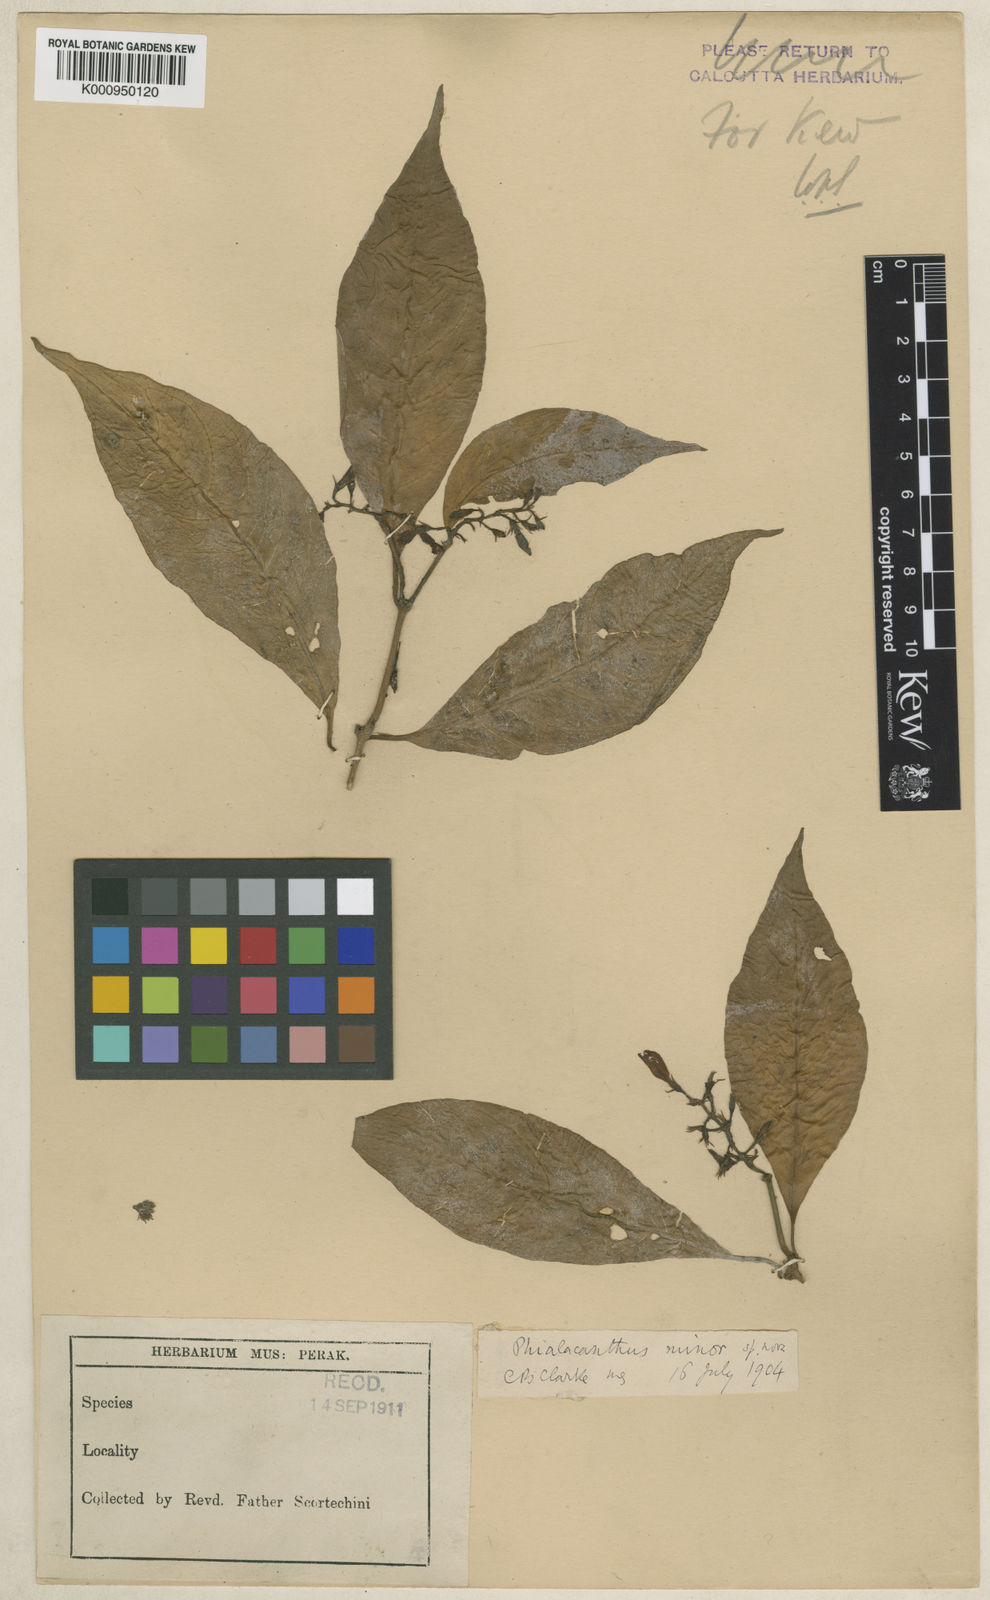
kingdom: Plantae
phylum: Tracheophyta
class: Magnoliopsida
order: Lamiales
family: Acanthaceae
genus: Phialacanthus
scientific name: Phialacanthus minor
